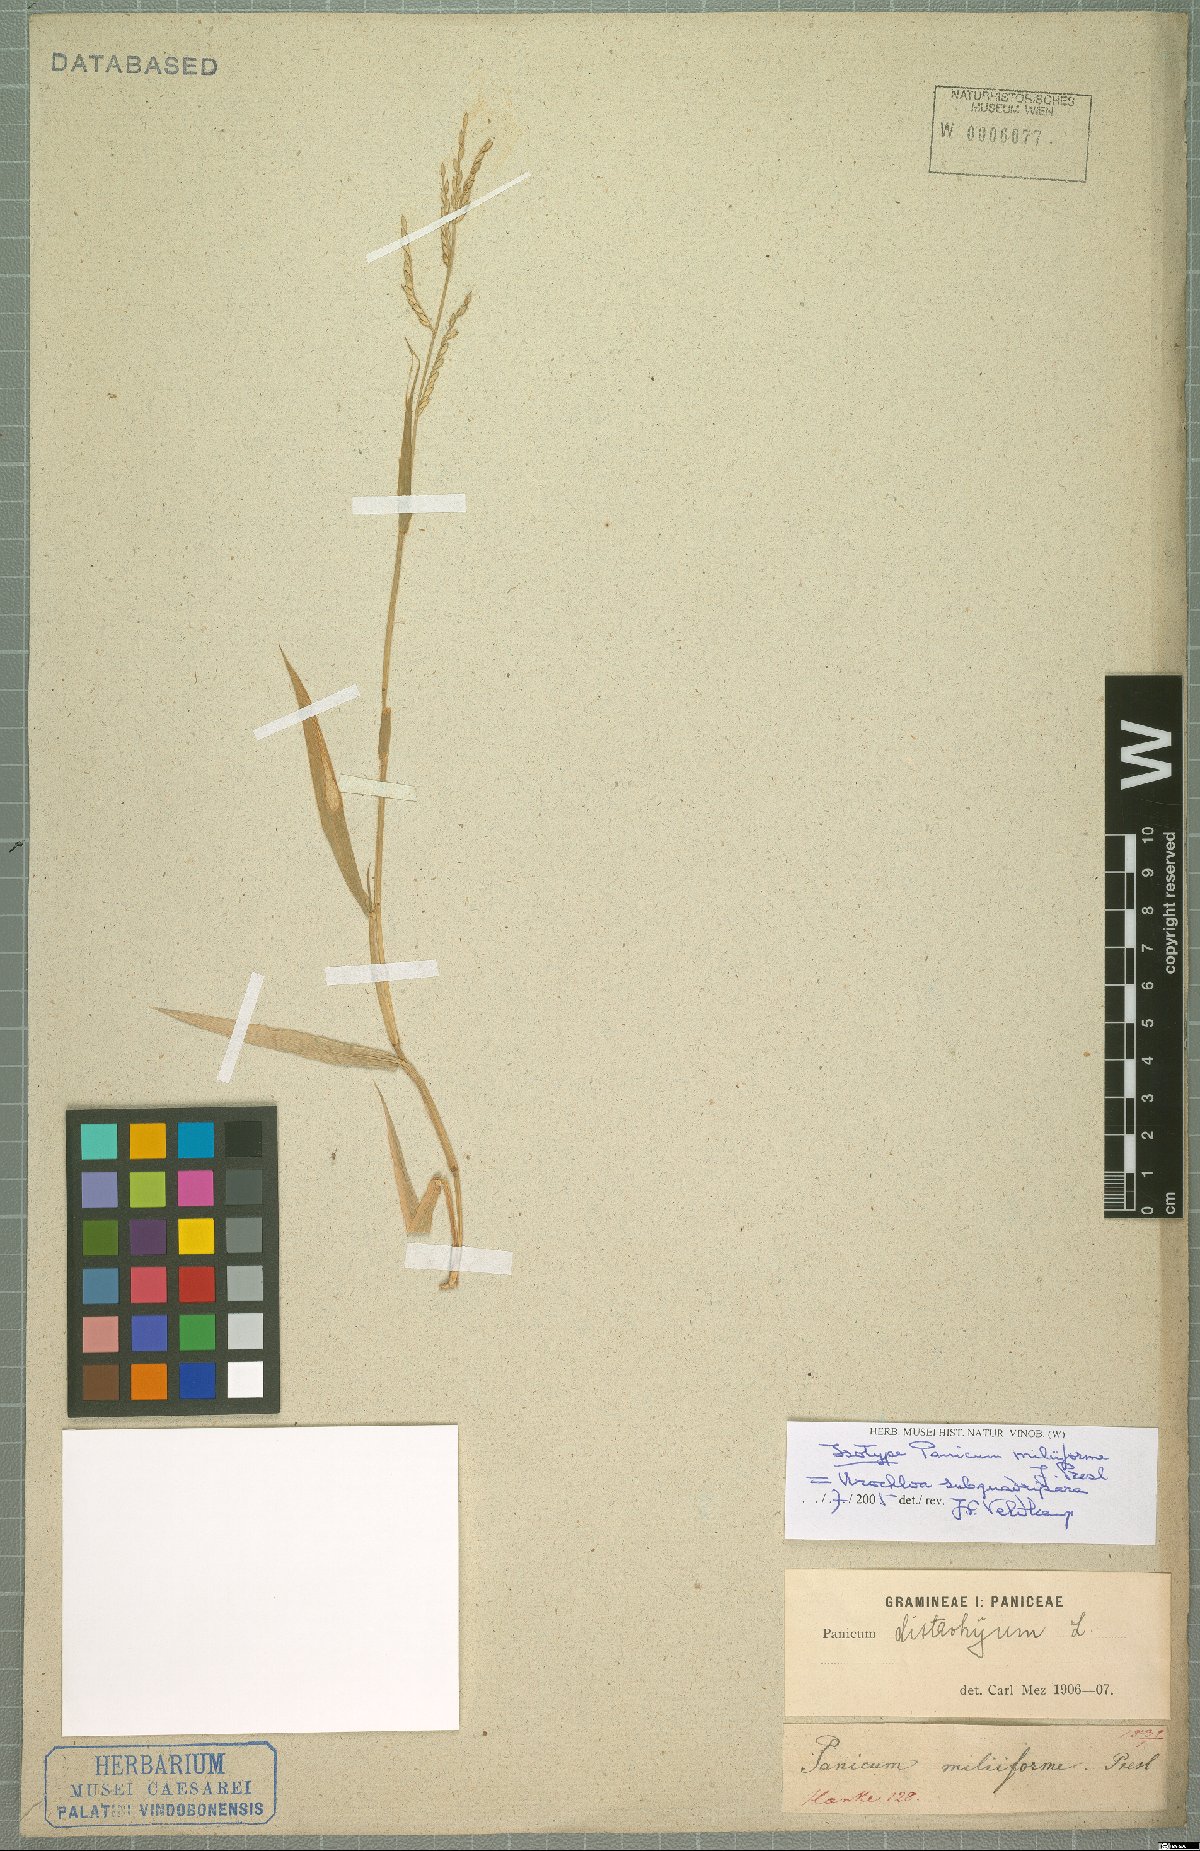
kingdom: Plantae
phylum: Tracheophyta
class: Liliopsida
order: Poales
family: Poaceae
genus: Urochloa
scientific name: Urochloa subquadripara
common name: Armgrass millet
